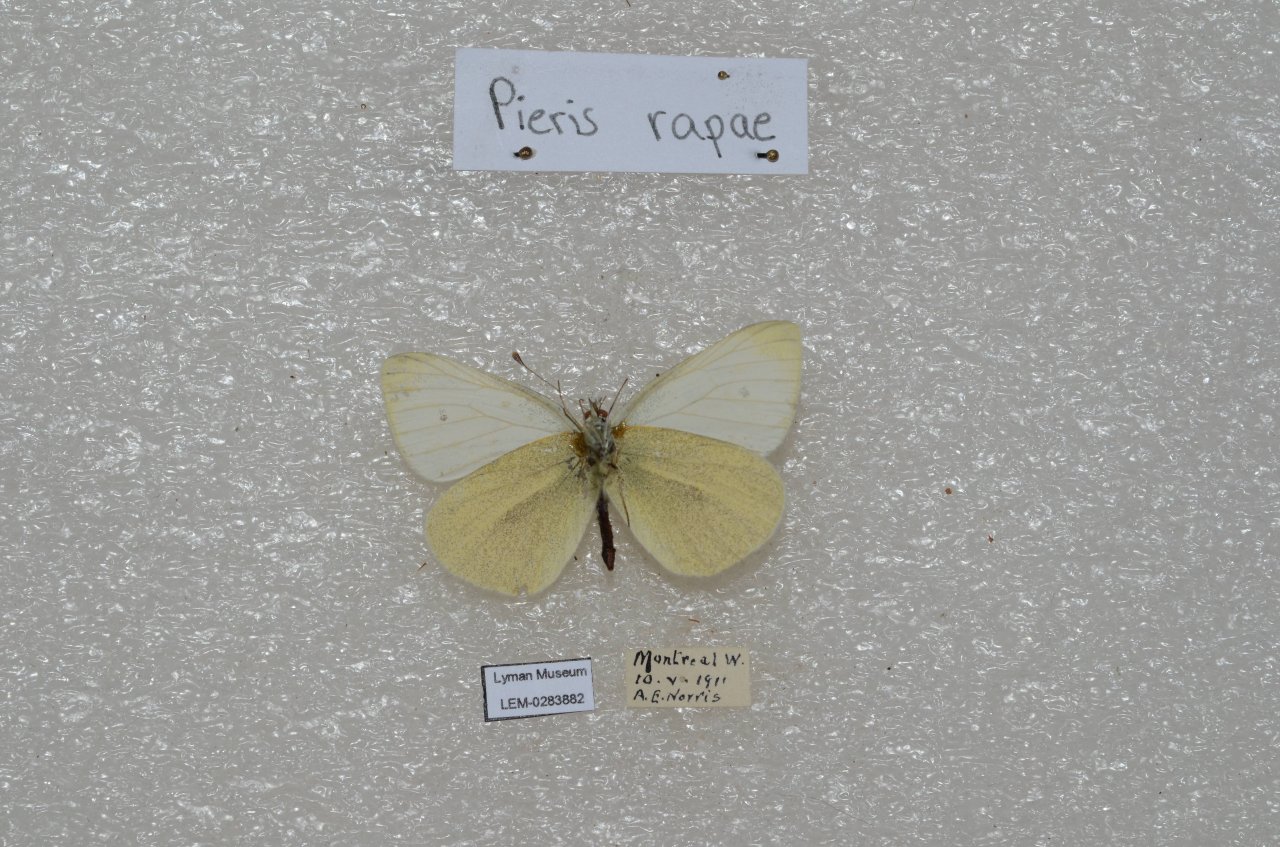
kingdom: Animalia
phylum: Arthropoda
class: Insecta
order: Lepidoptera
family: Pieridae
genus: Pieris
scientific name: Pieris rapae
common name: Cabbage White
